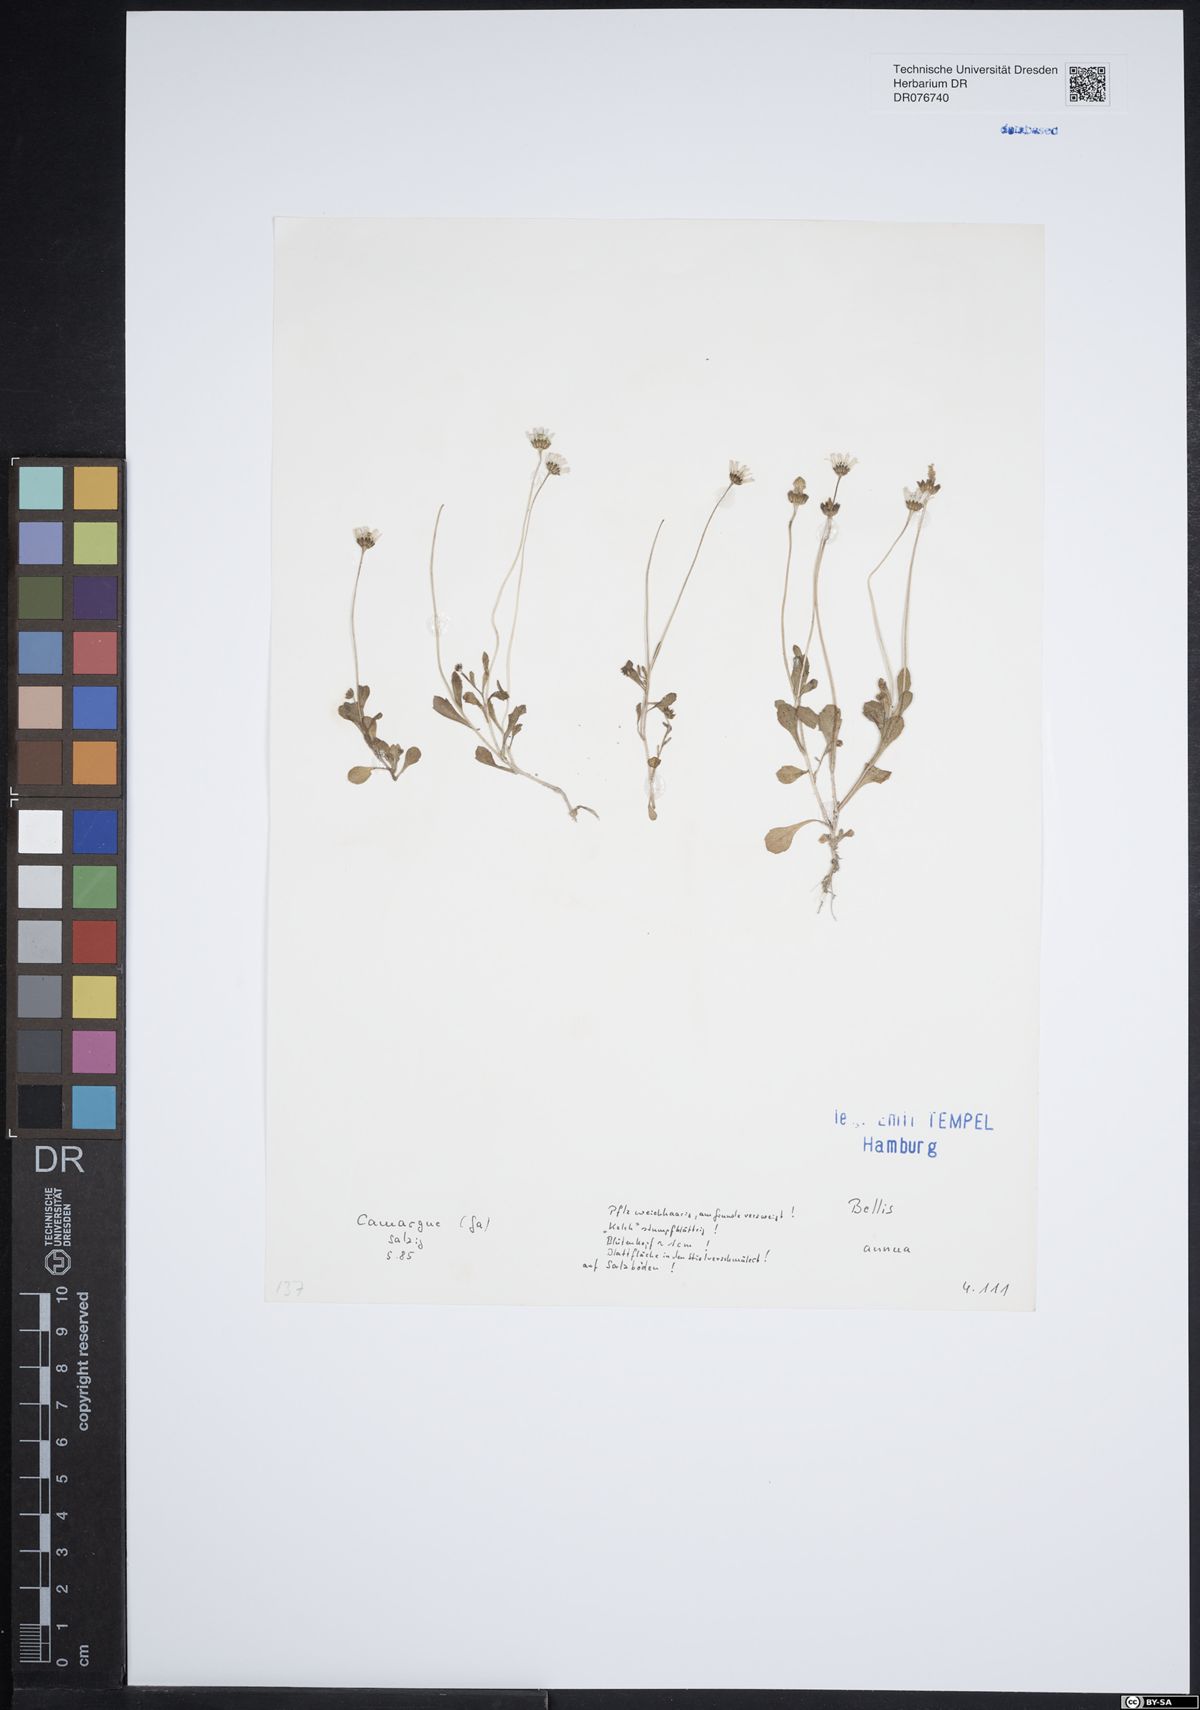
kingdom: Plantae
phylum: Tracheophyta
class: Magnoliopsida
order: Asterales
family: Asteraceae
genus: Bellis
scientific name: Bellis annua
